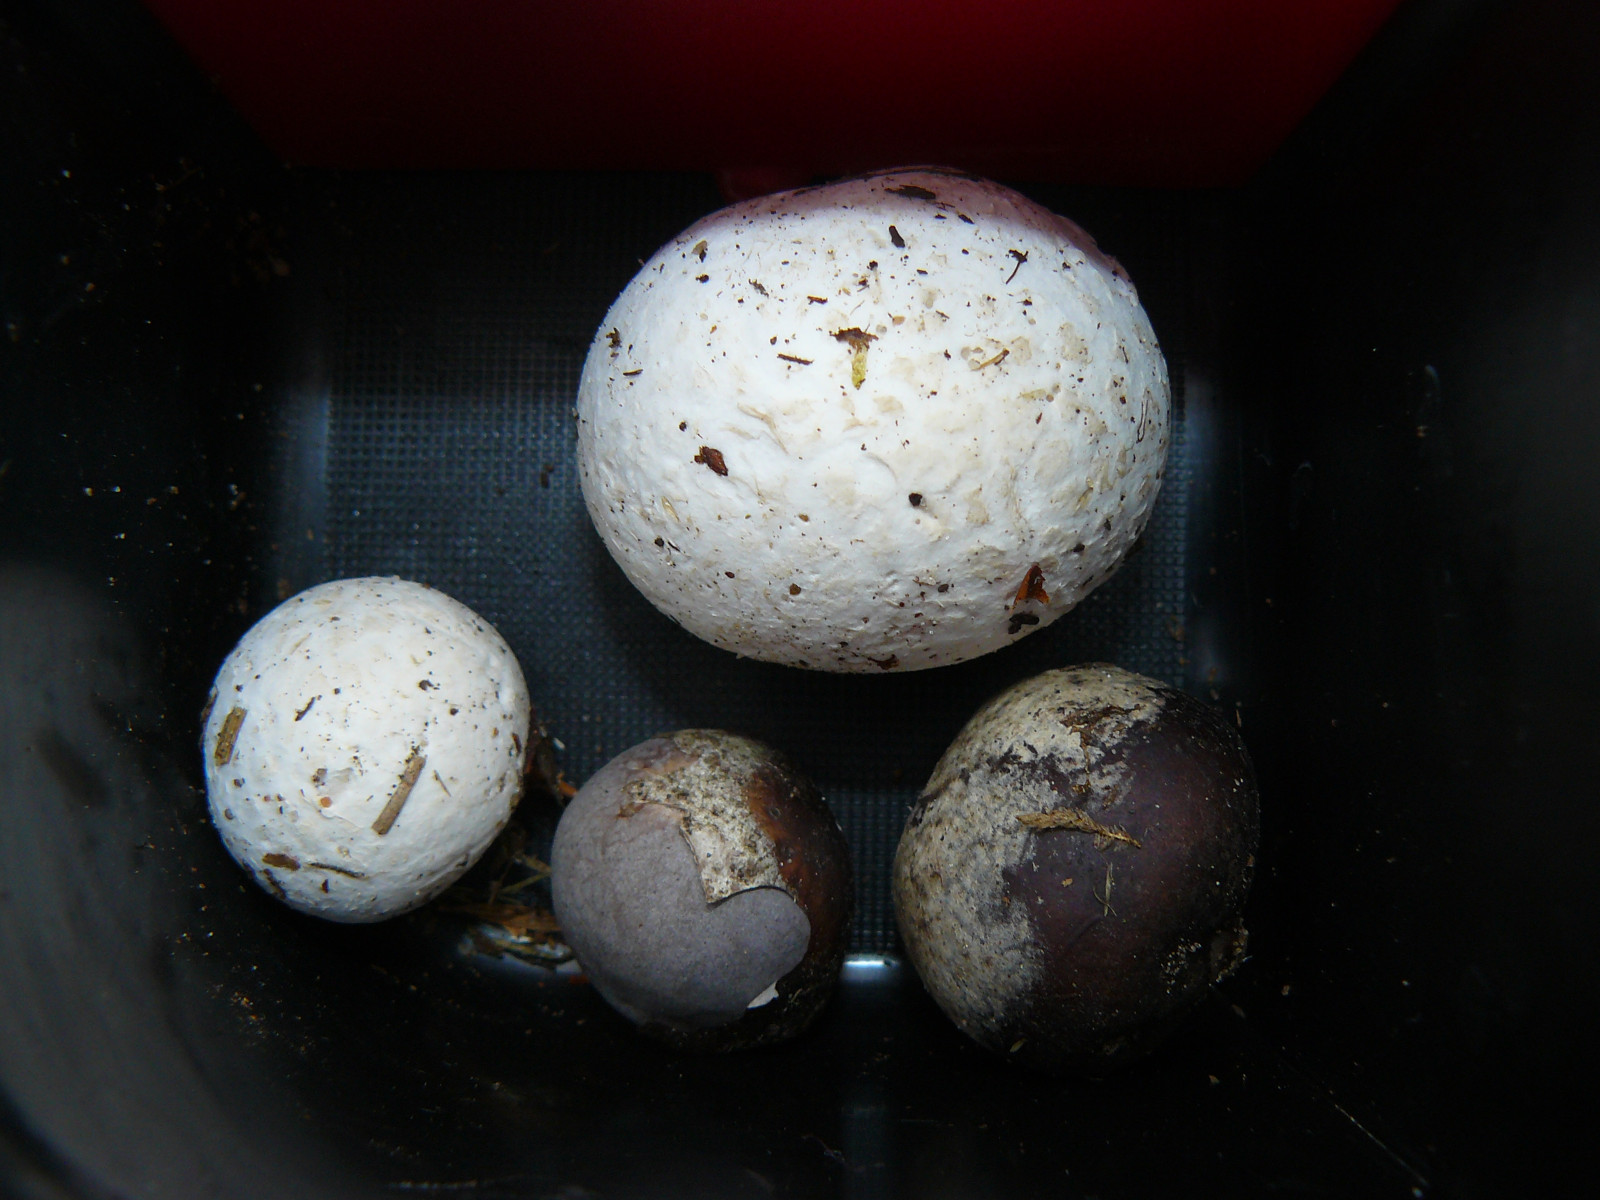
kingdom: Fungi
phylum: Basidiomycota
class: Agaricomycetes
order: Agaricales
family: Lycoperdaceae
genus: Bovista
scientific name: Bovista plumbea
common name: blygrå bovist
